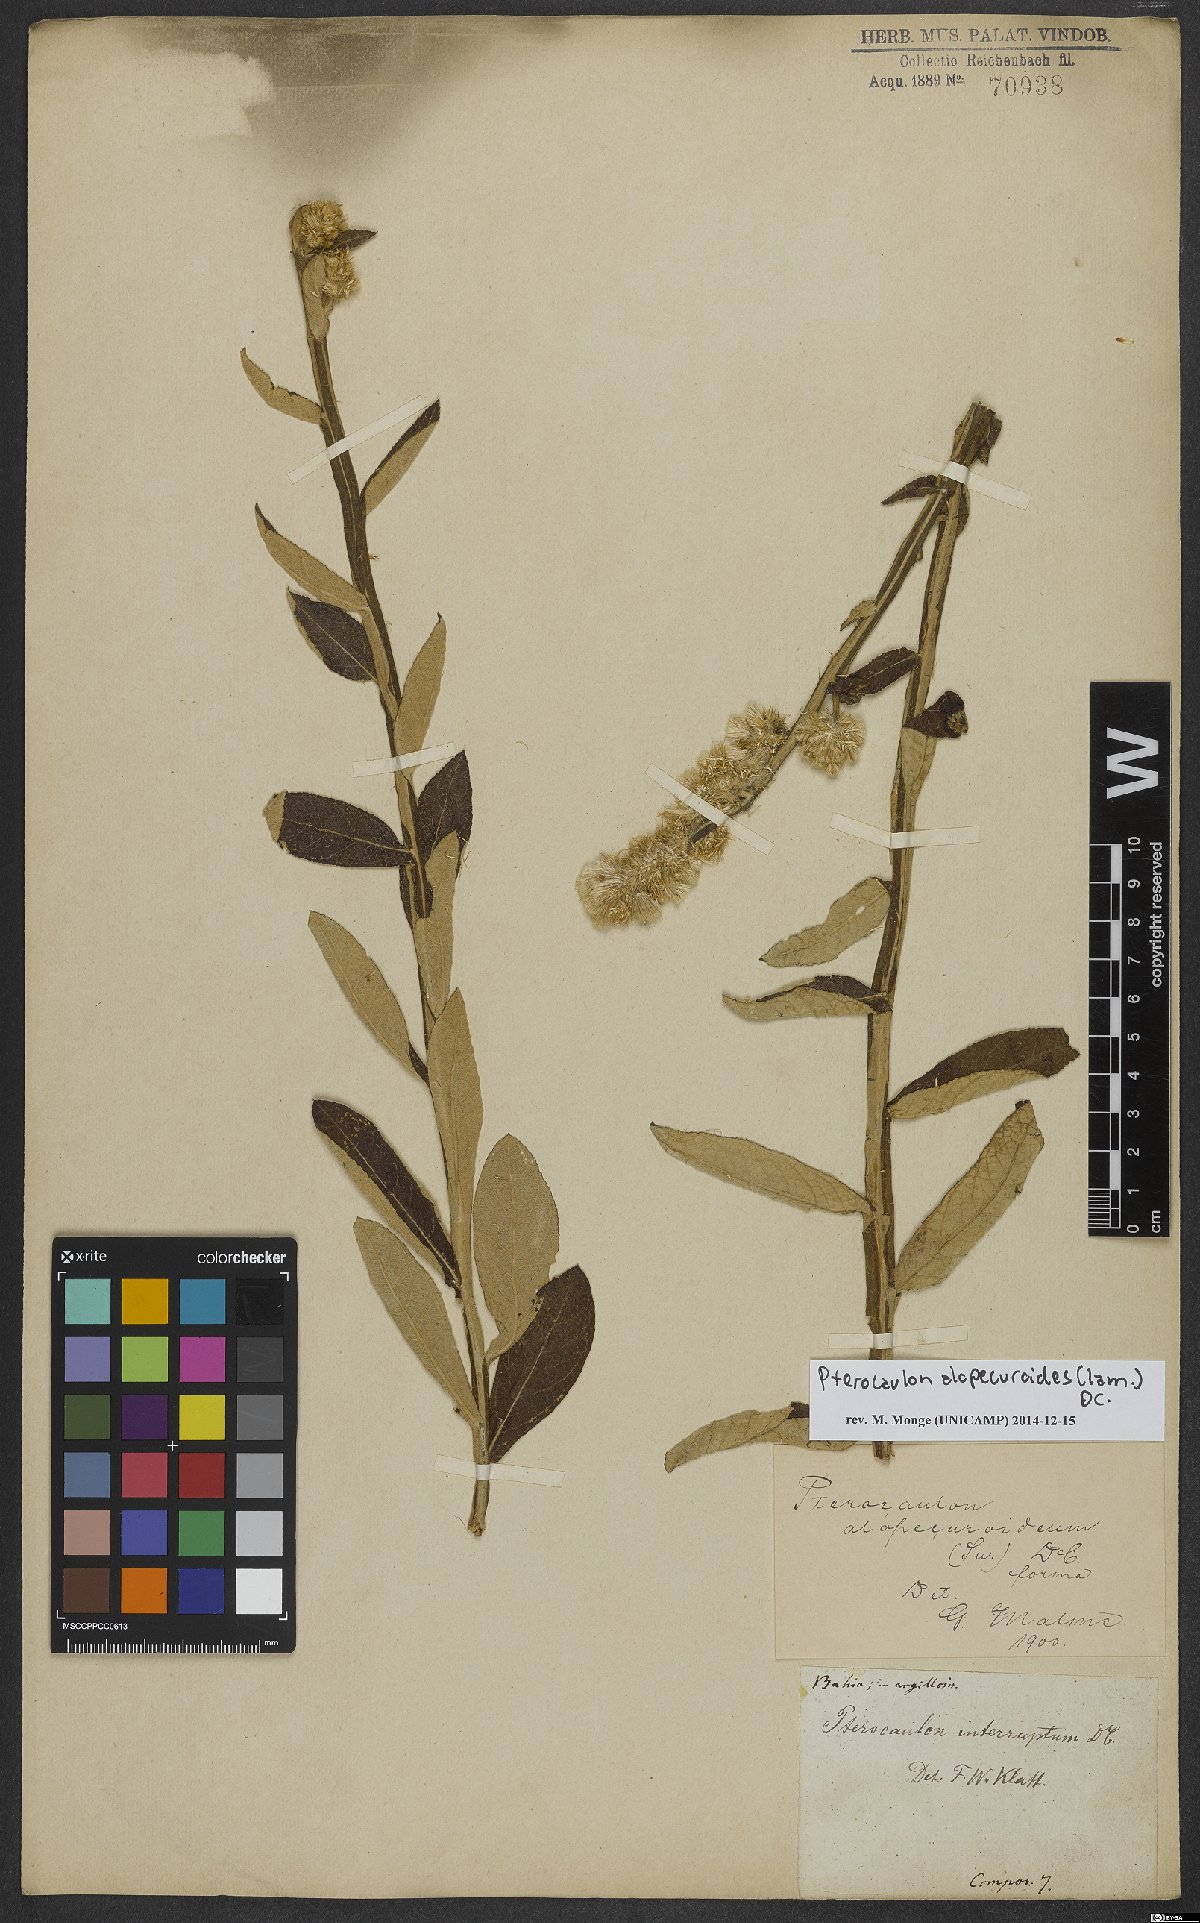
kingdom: Plantae
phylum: Tracheophyta
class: Magnoliopsida
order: Asterales
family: Asteraceae
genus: Pterocaulon
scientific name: Pterocaulon alopecuroides
